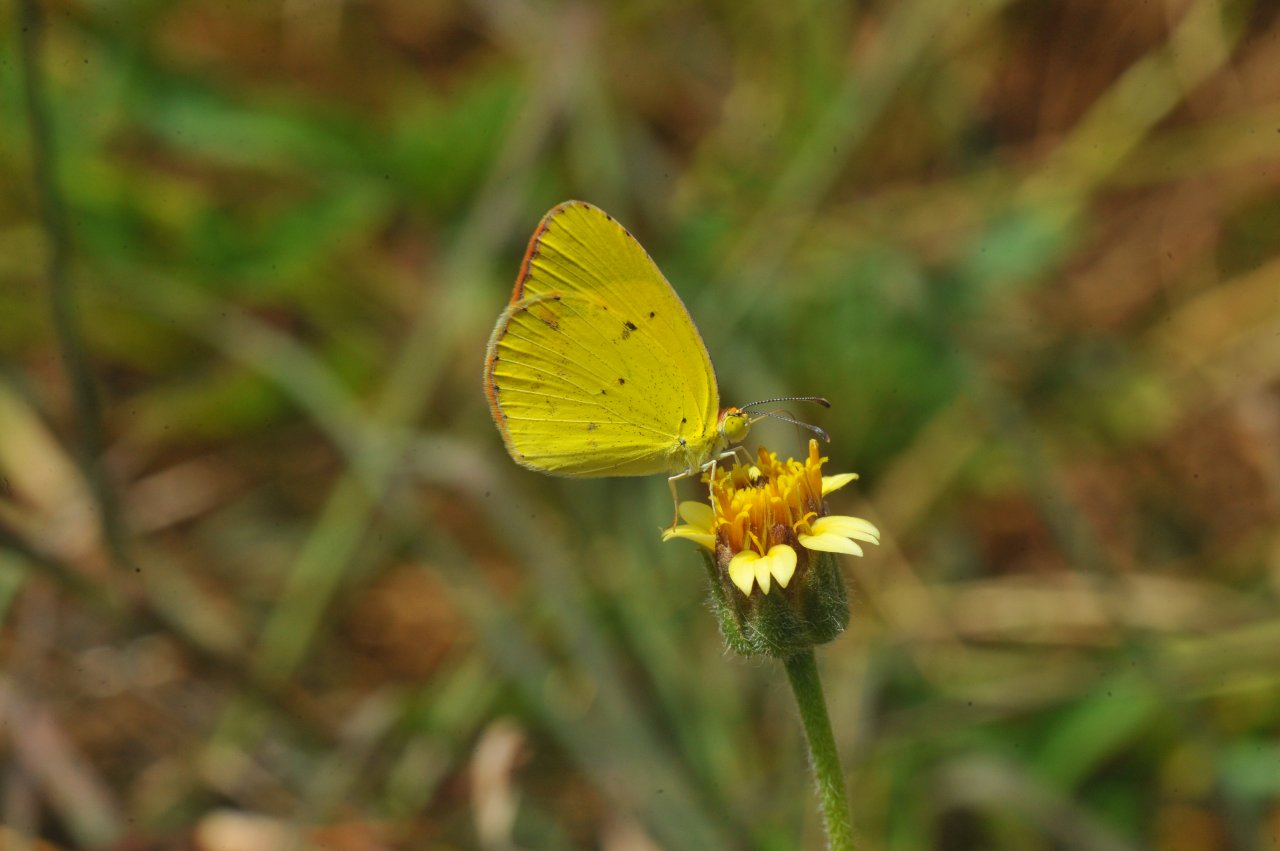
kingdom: Animalia
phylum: Arthropoda
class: Insecta
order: Lepidoptera
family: Pieridae
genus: Pyrisitia
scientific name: Pyrisitia lisa
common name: Little Yellow
